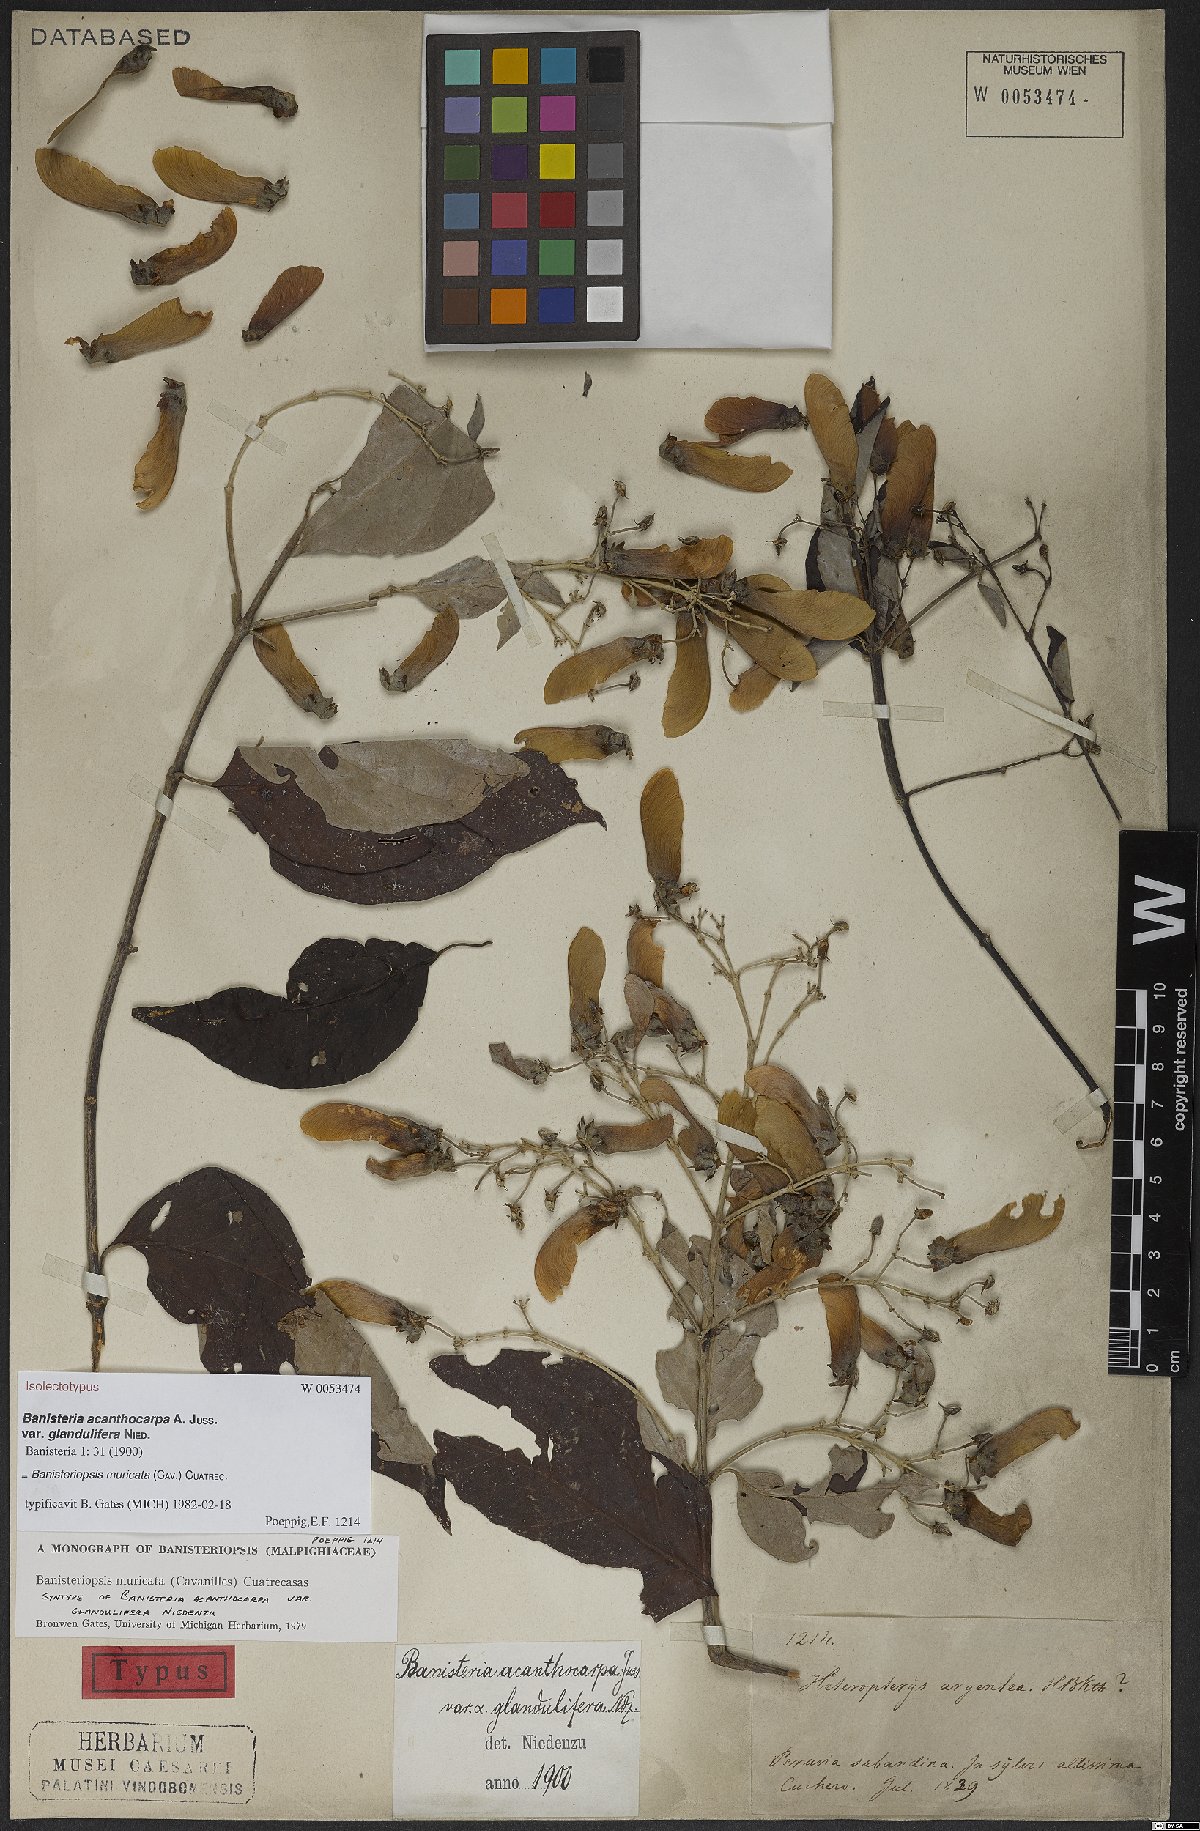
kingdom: Plantae
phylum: Tracheophyta
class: Magnoliopsida
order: Malpighiales
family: Malpighiaceae
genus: Banisteriopsis
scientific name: Banisteriopsis muricata
